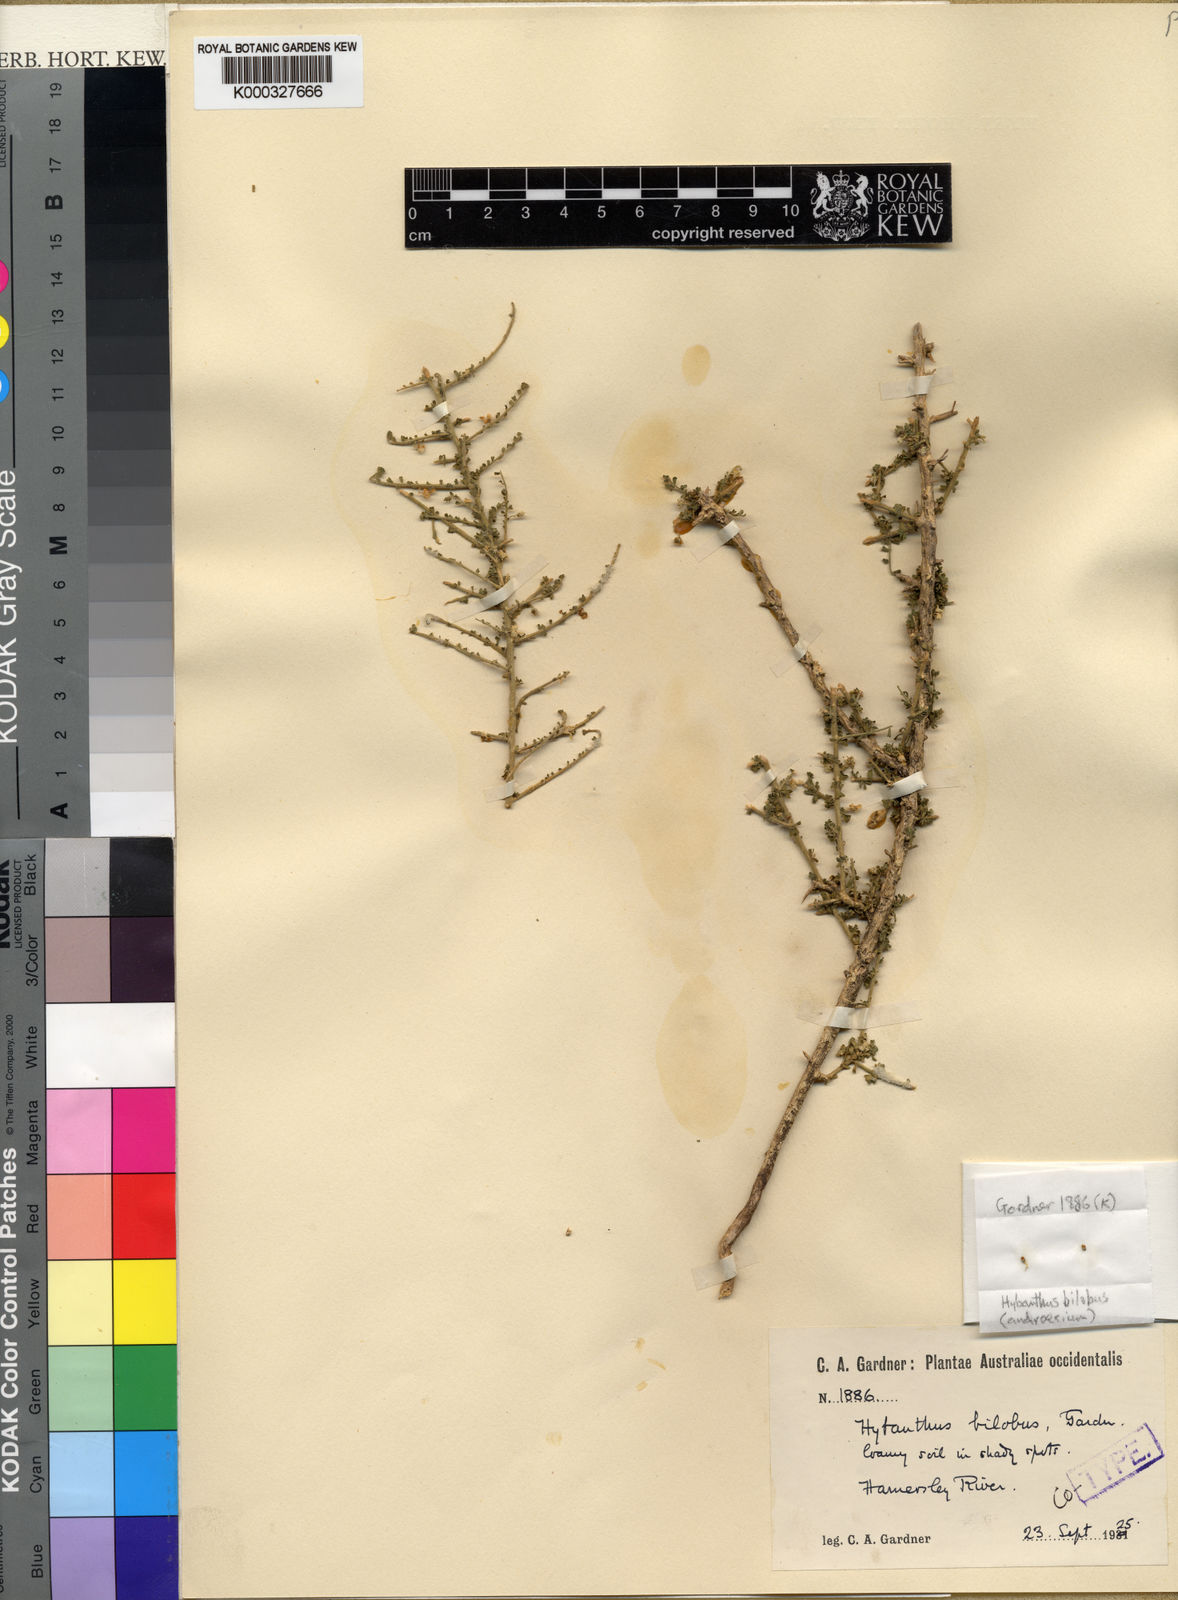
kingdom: Plantae
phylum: Tracheophyta
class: Magnoliopsida
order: Malpighiales
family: Violaceae
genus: Hybanthus
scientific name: Hybanthus
